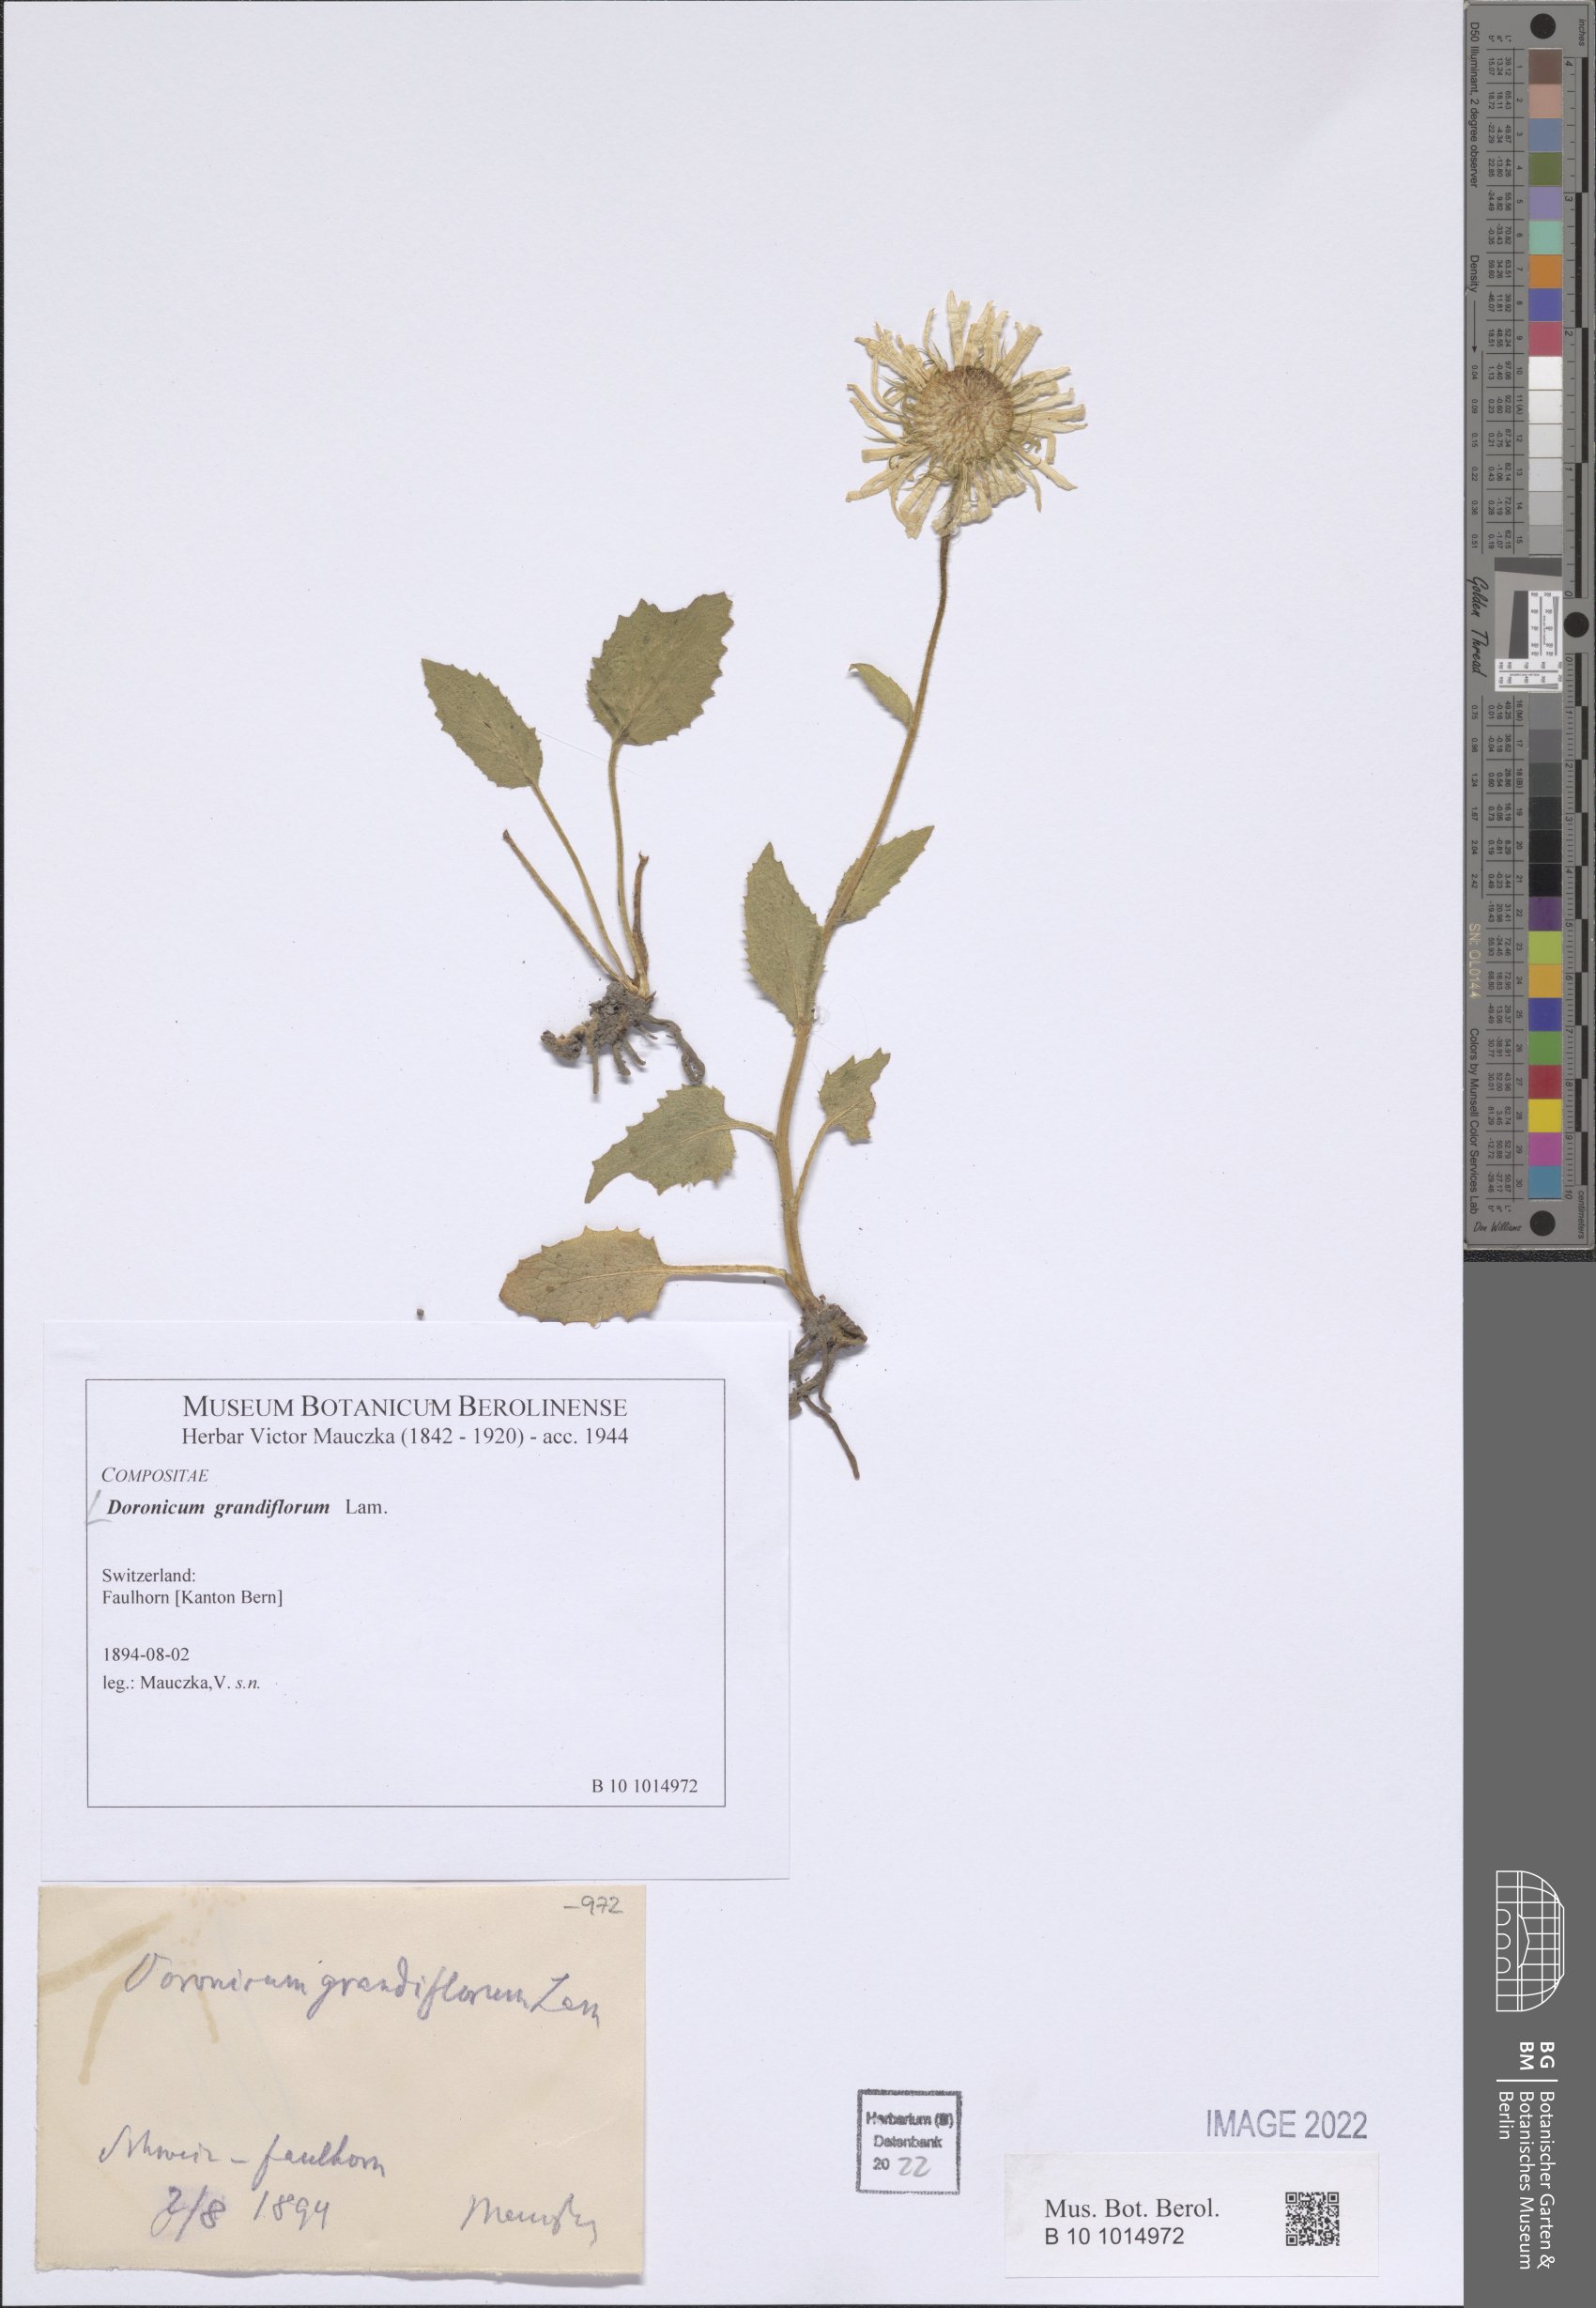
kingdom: Plantae
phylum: Tracheophyta
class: Magnoliopsida
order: Asterales
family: Asteraceae
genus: Doronicum
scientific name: Doronicum grandiflorum
